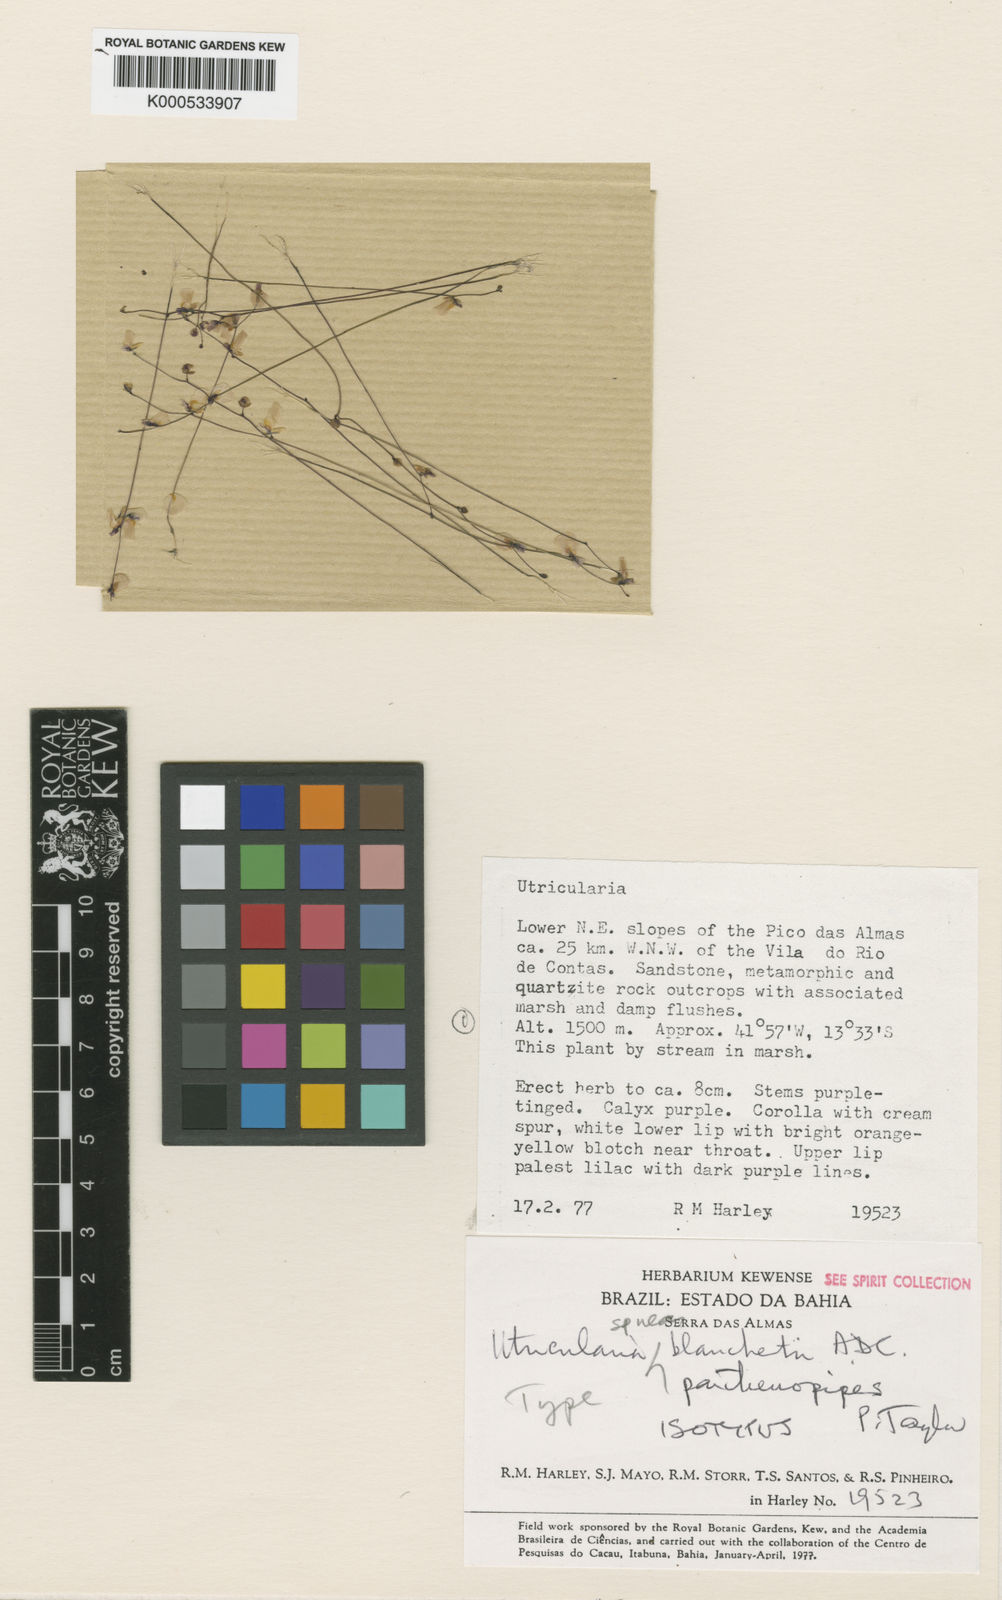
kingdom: Plantae
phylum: Tracheophyta
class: Magnoliopsida
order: Lamiales
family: Lentibulariaceae
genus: Utricularia
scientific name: Utricularia parthenopipes
